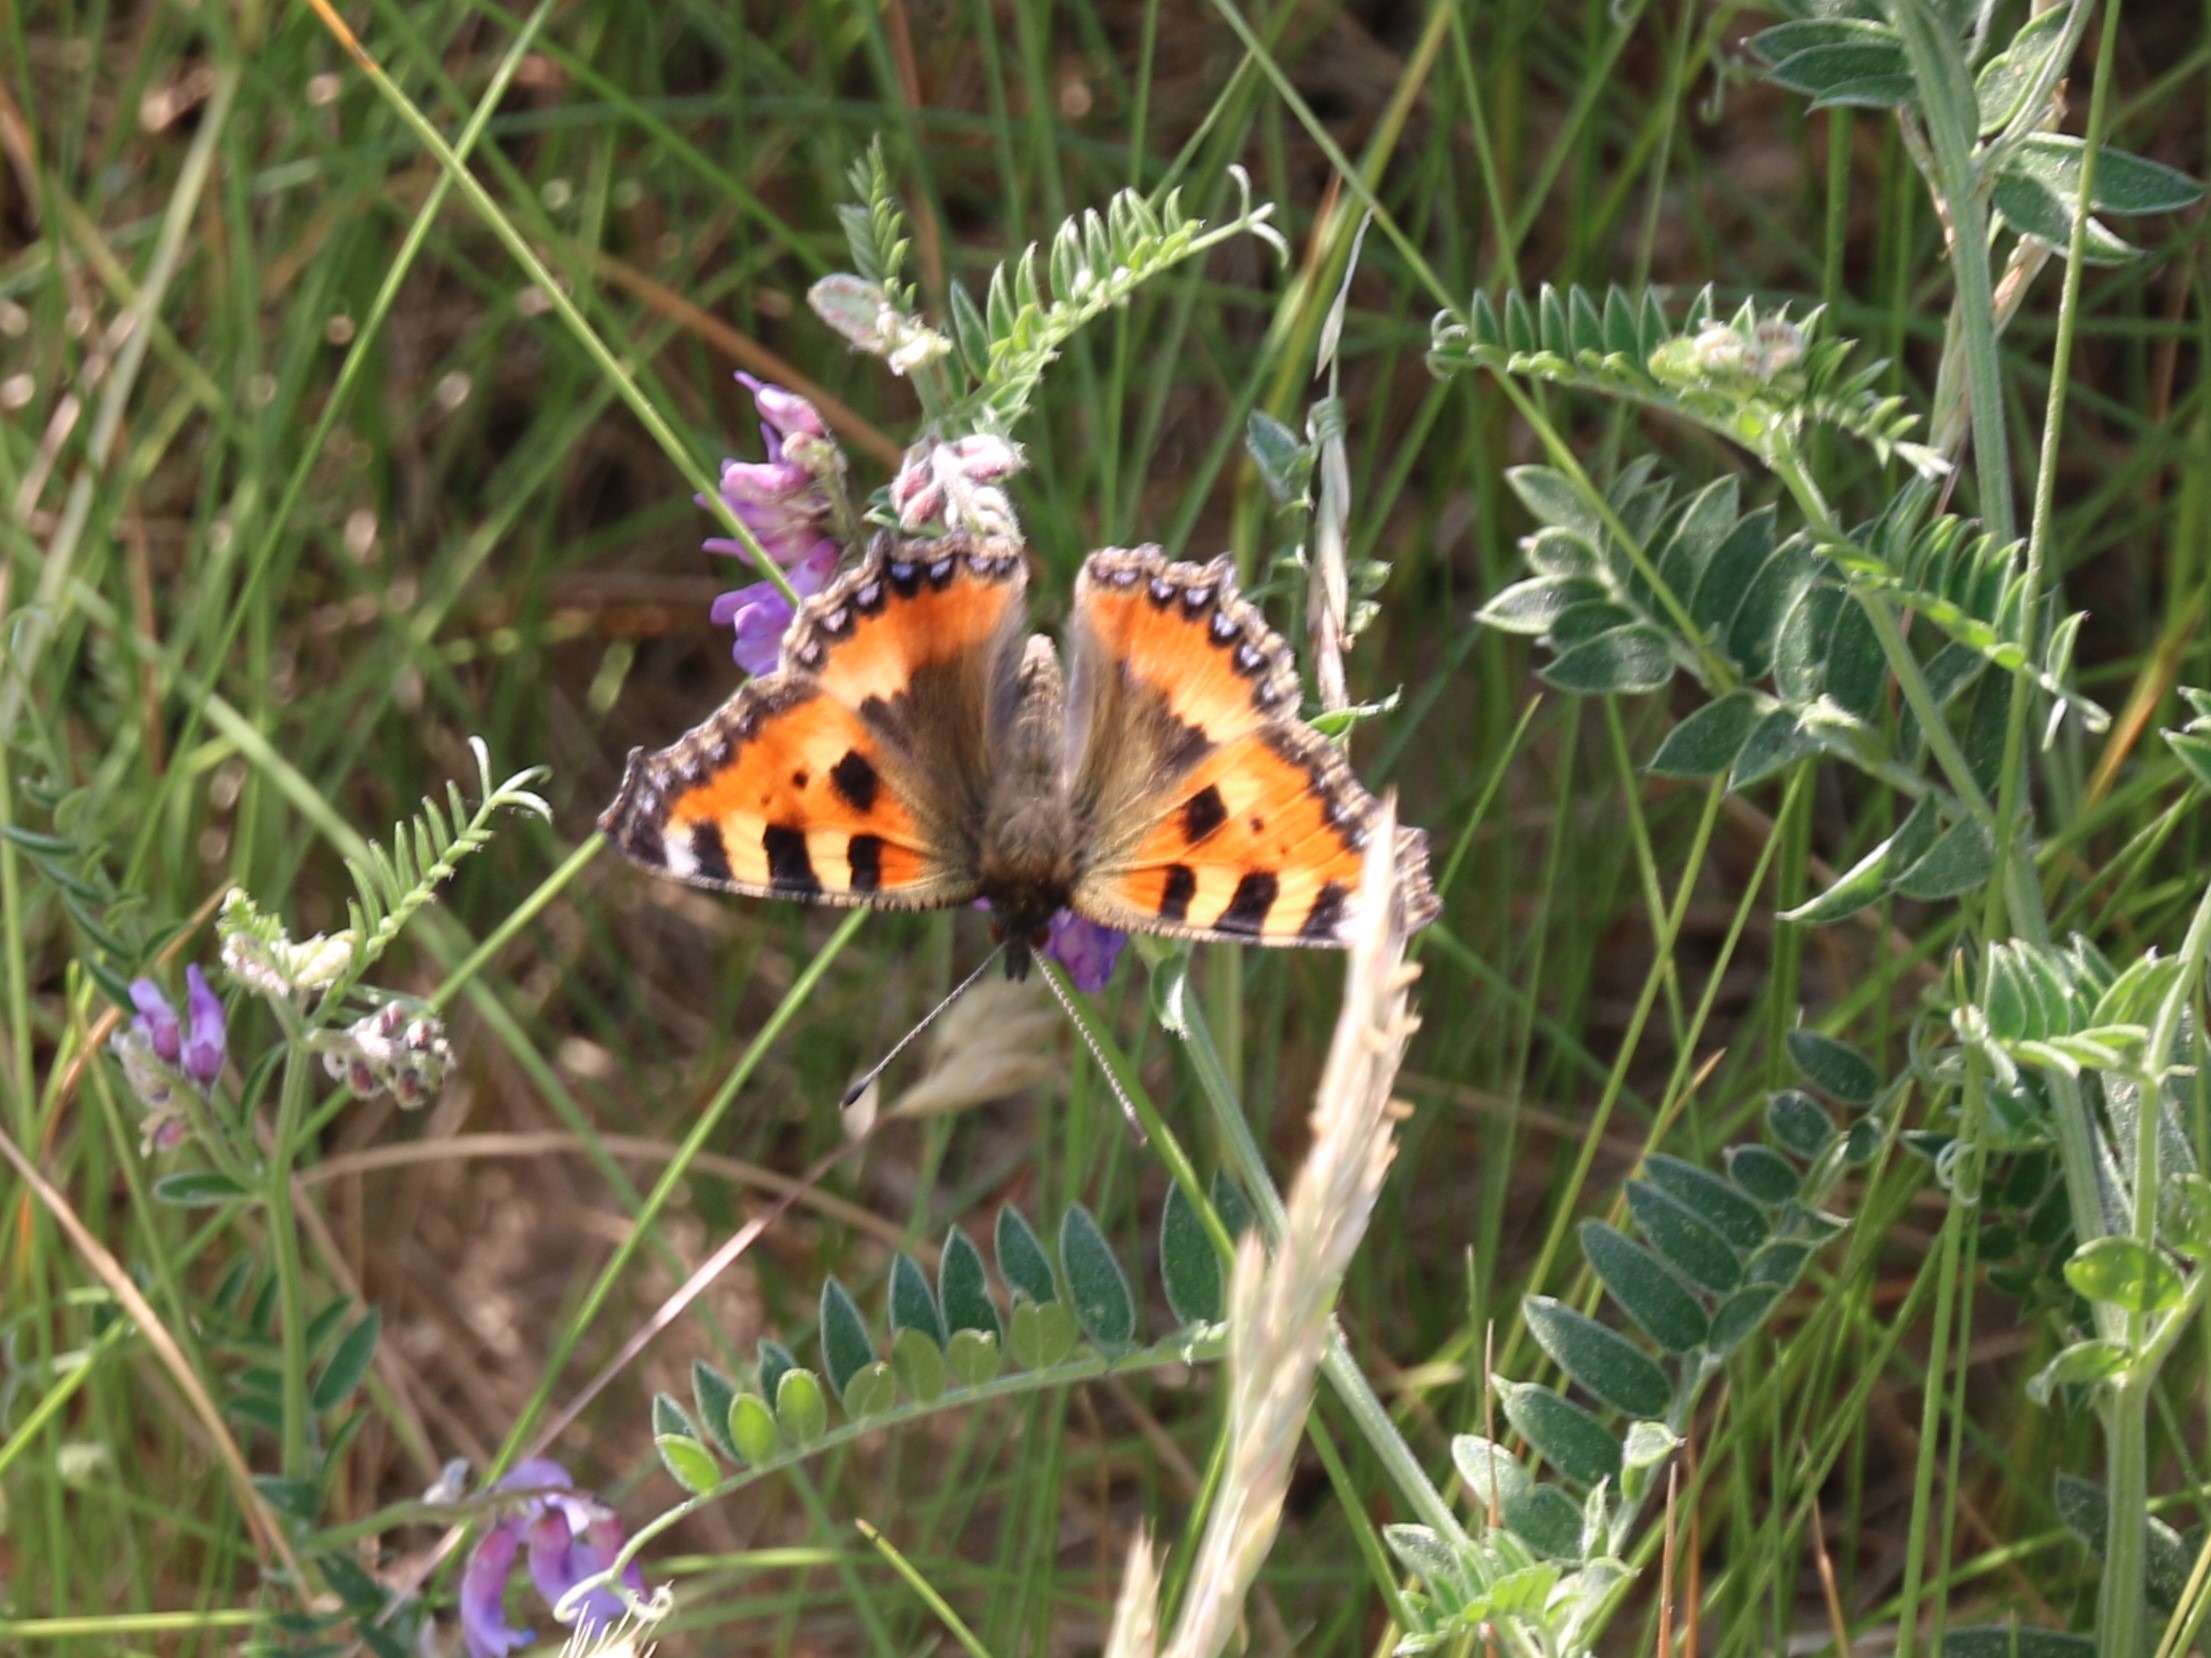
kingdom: Animalia
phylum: Arthropoda
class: Insecta
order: Lepidoptera
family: Nymphalidae
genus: Aglais
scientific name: Aglais urticae
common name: Nældens takvinge
